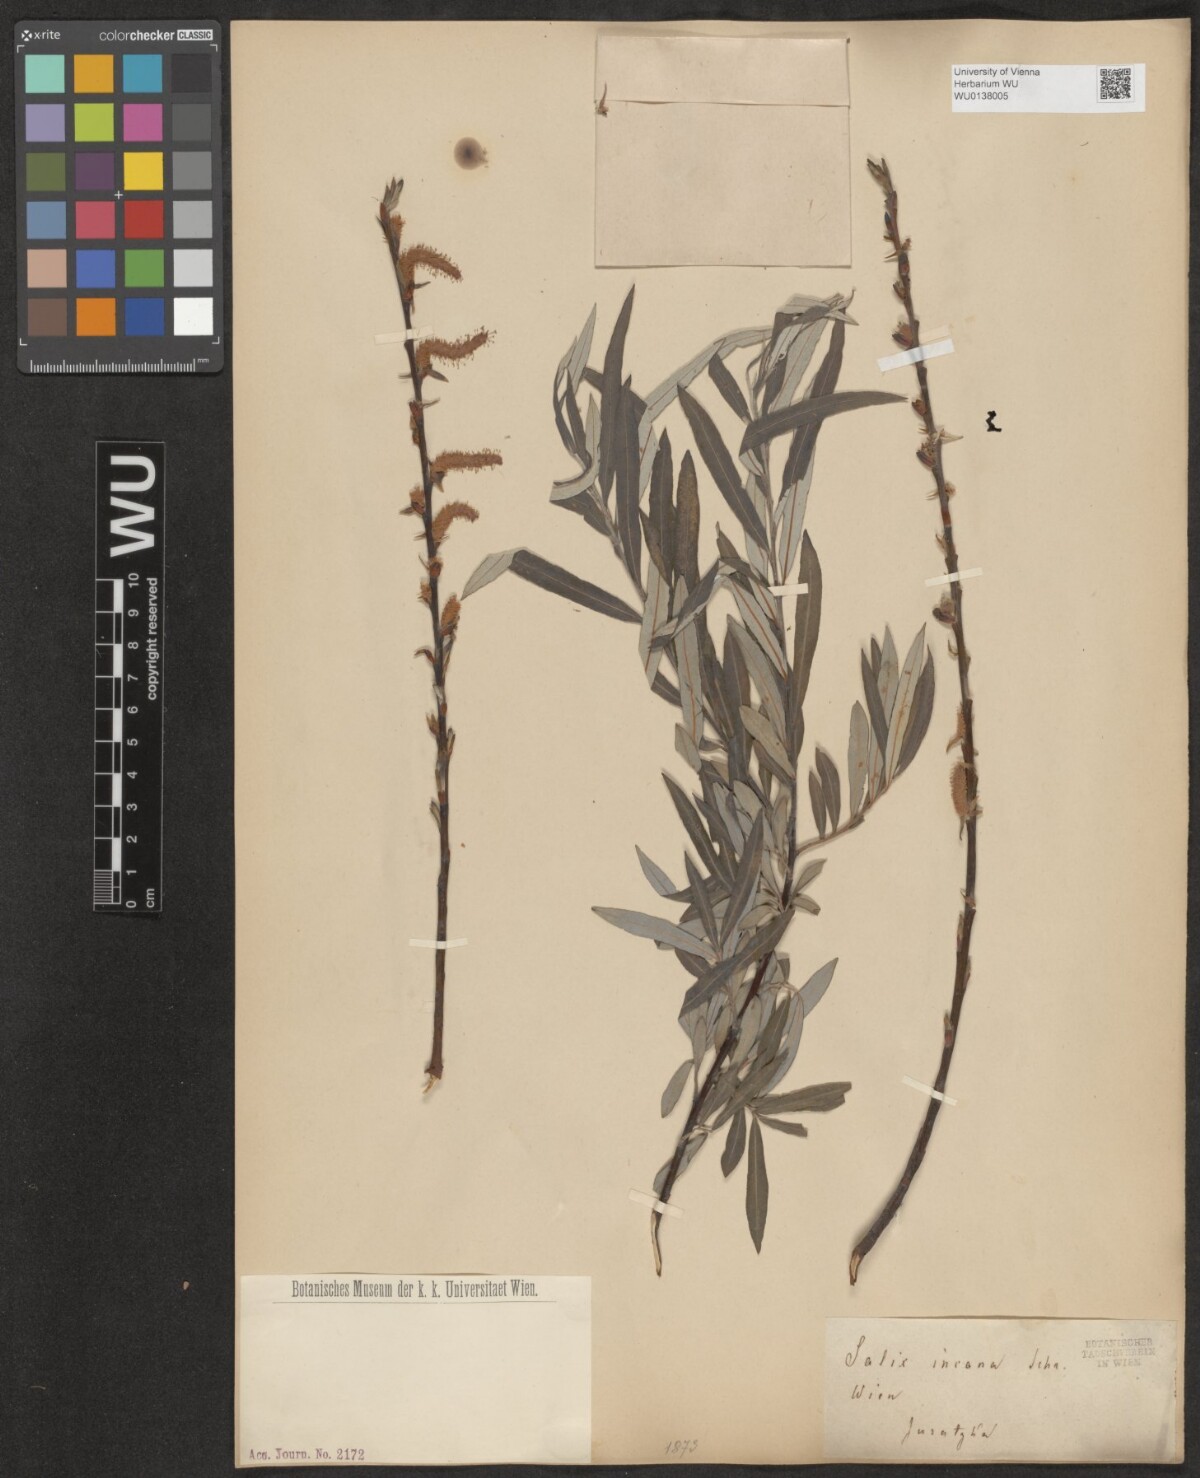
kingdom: Plantae
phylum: Tracheophyta
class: Magnoliopsida
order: Malpighiales
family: Salicaceae
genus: Salix
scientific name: Salix eleagnos
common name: Elaeagnus willow
